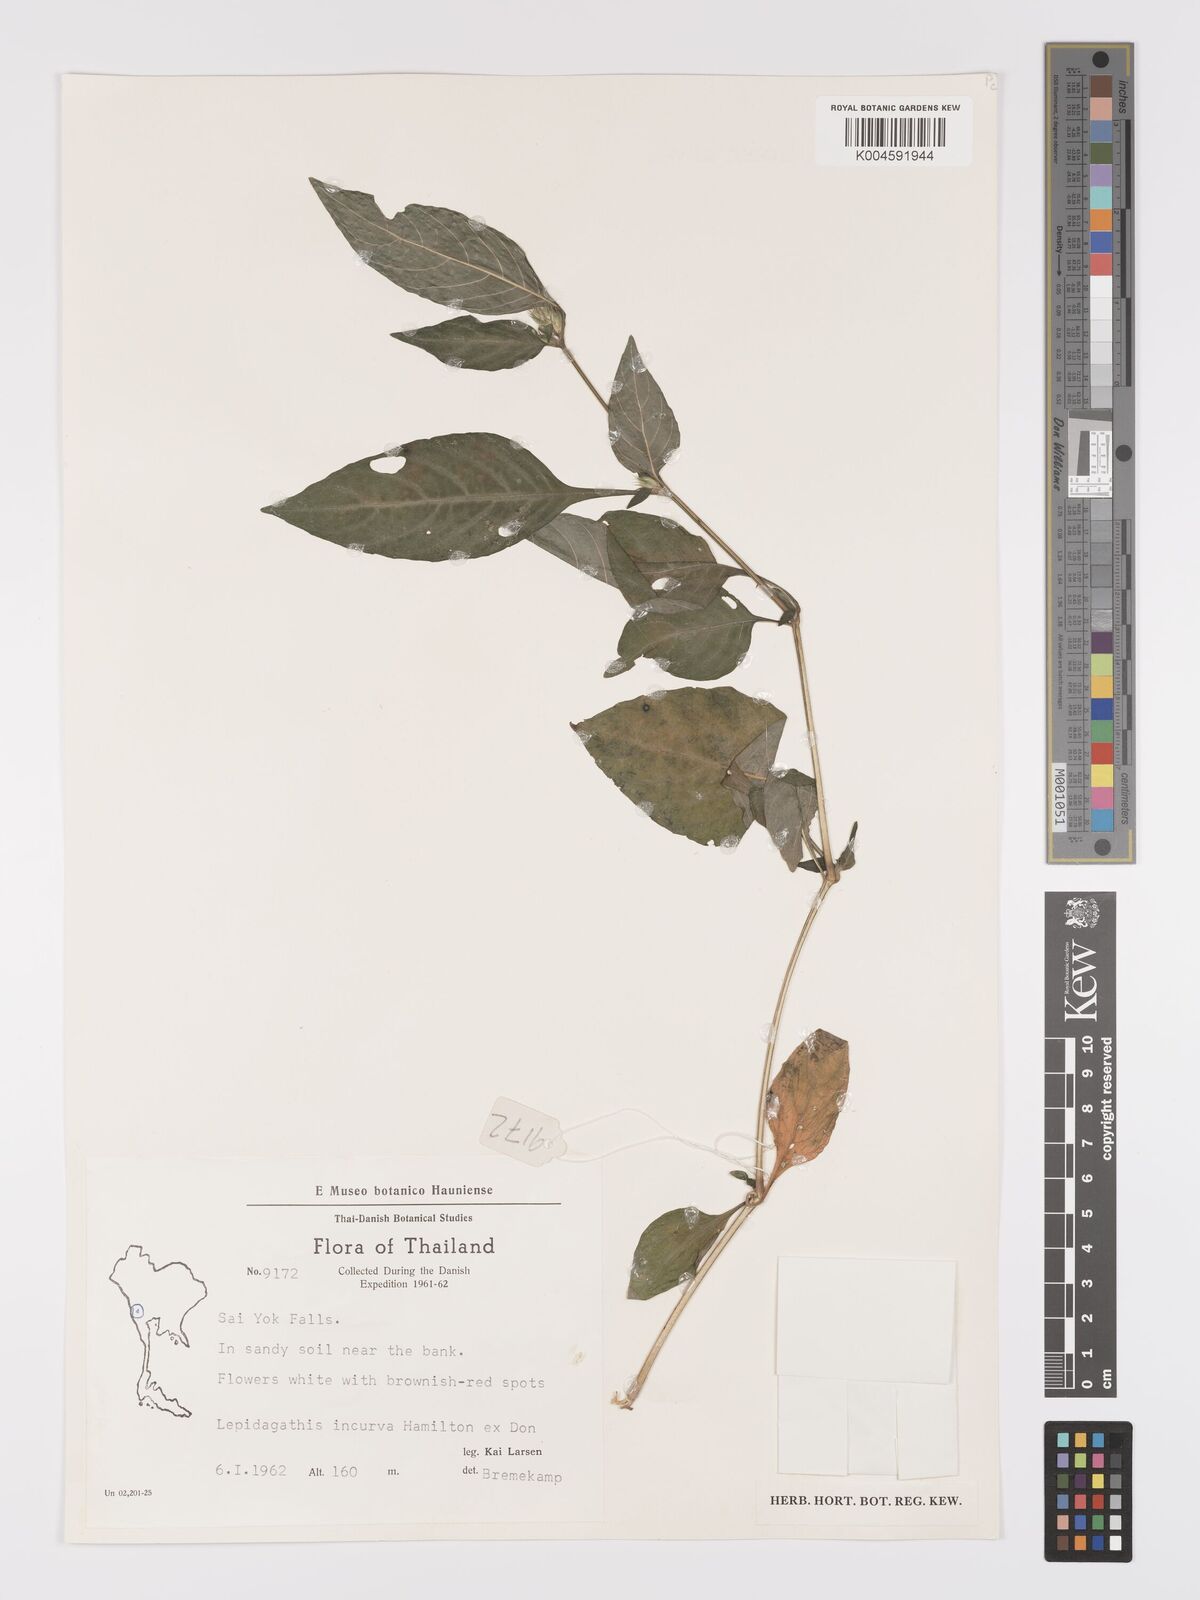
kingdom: Plantae
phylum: Tracheophyta
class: Magnoliopsida
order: Lamiales
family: Acanthaceae
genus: Lepidagathis
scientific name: Lepidagathis incurva
